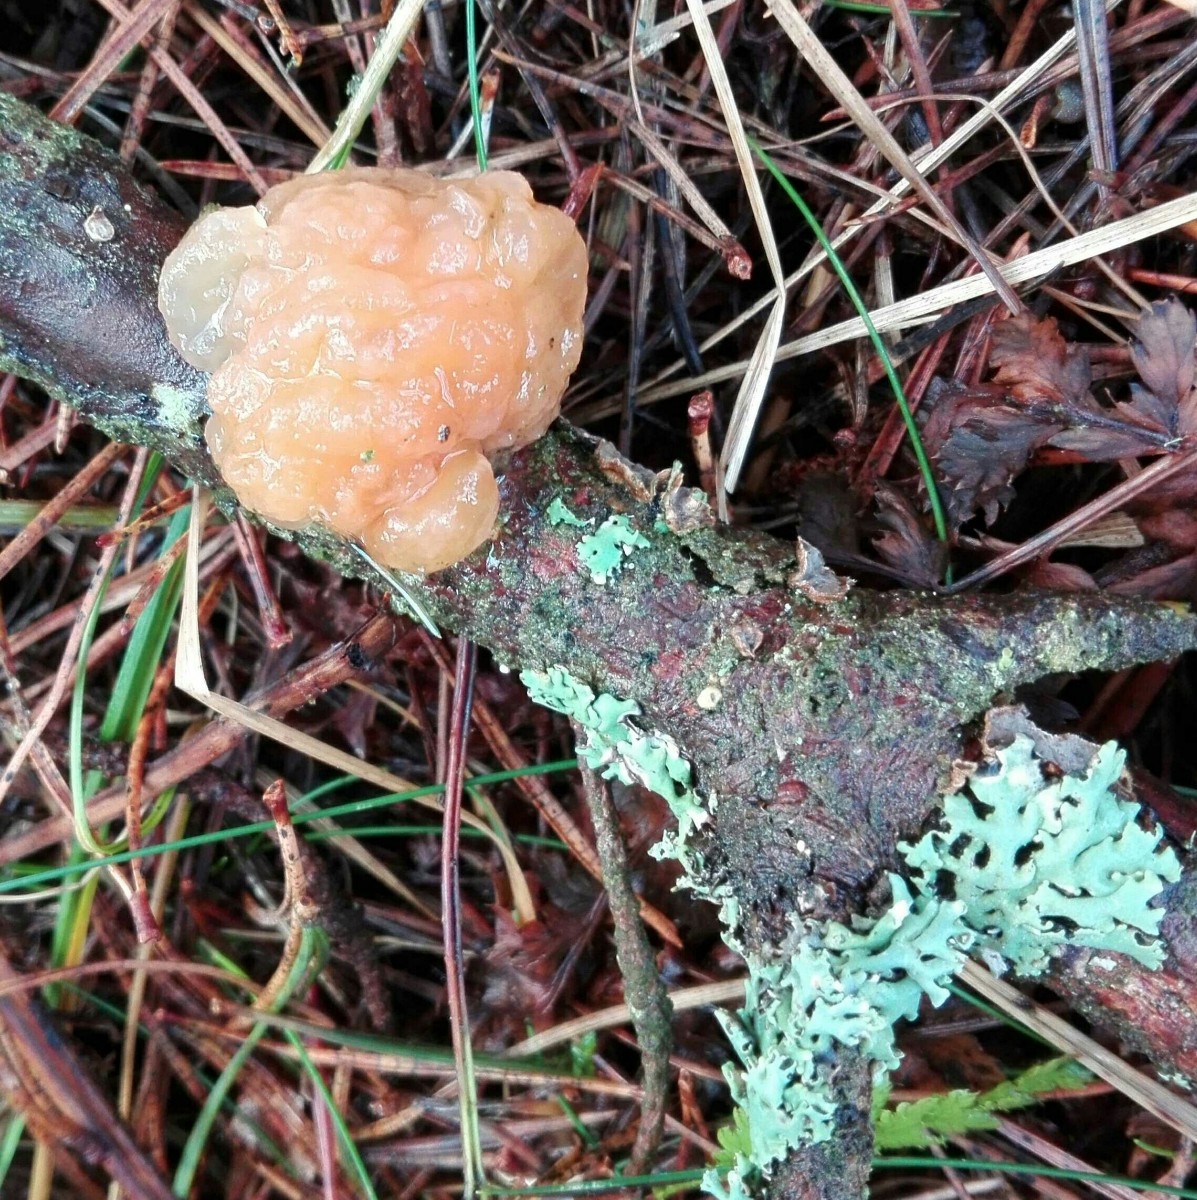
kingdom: Fungi
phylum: Basidiomycota
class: Tremellomycetes
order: Tremellales
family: Naemateliaceae
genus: Naematelia
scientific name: Naematelia encephala
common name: fyrre-bævresvamp
